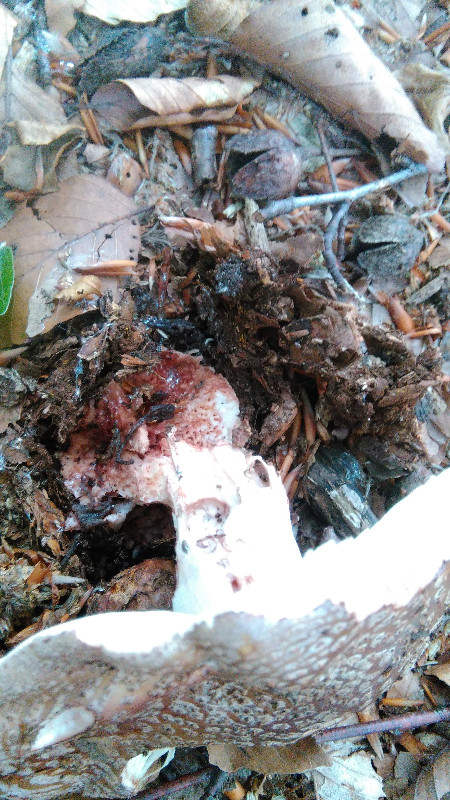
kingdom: Fungi
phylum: Basidiomycota
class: Agaricomycetes
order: Agaricales
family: Amanitaceae
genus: Amanita
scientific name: Amanita rubescens
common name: rødmende fluesvamp
